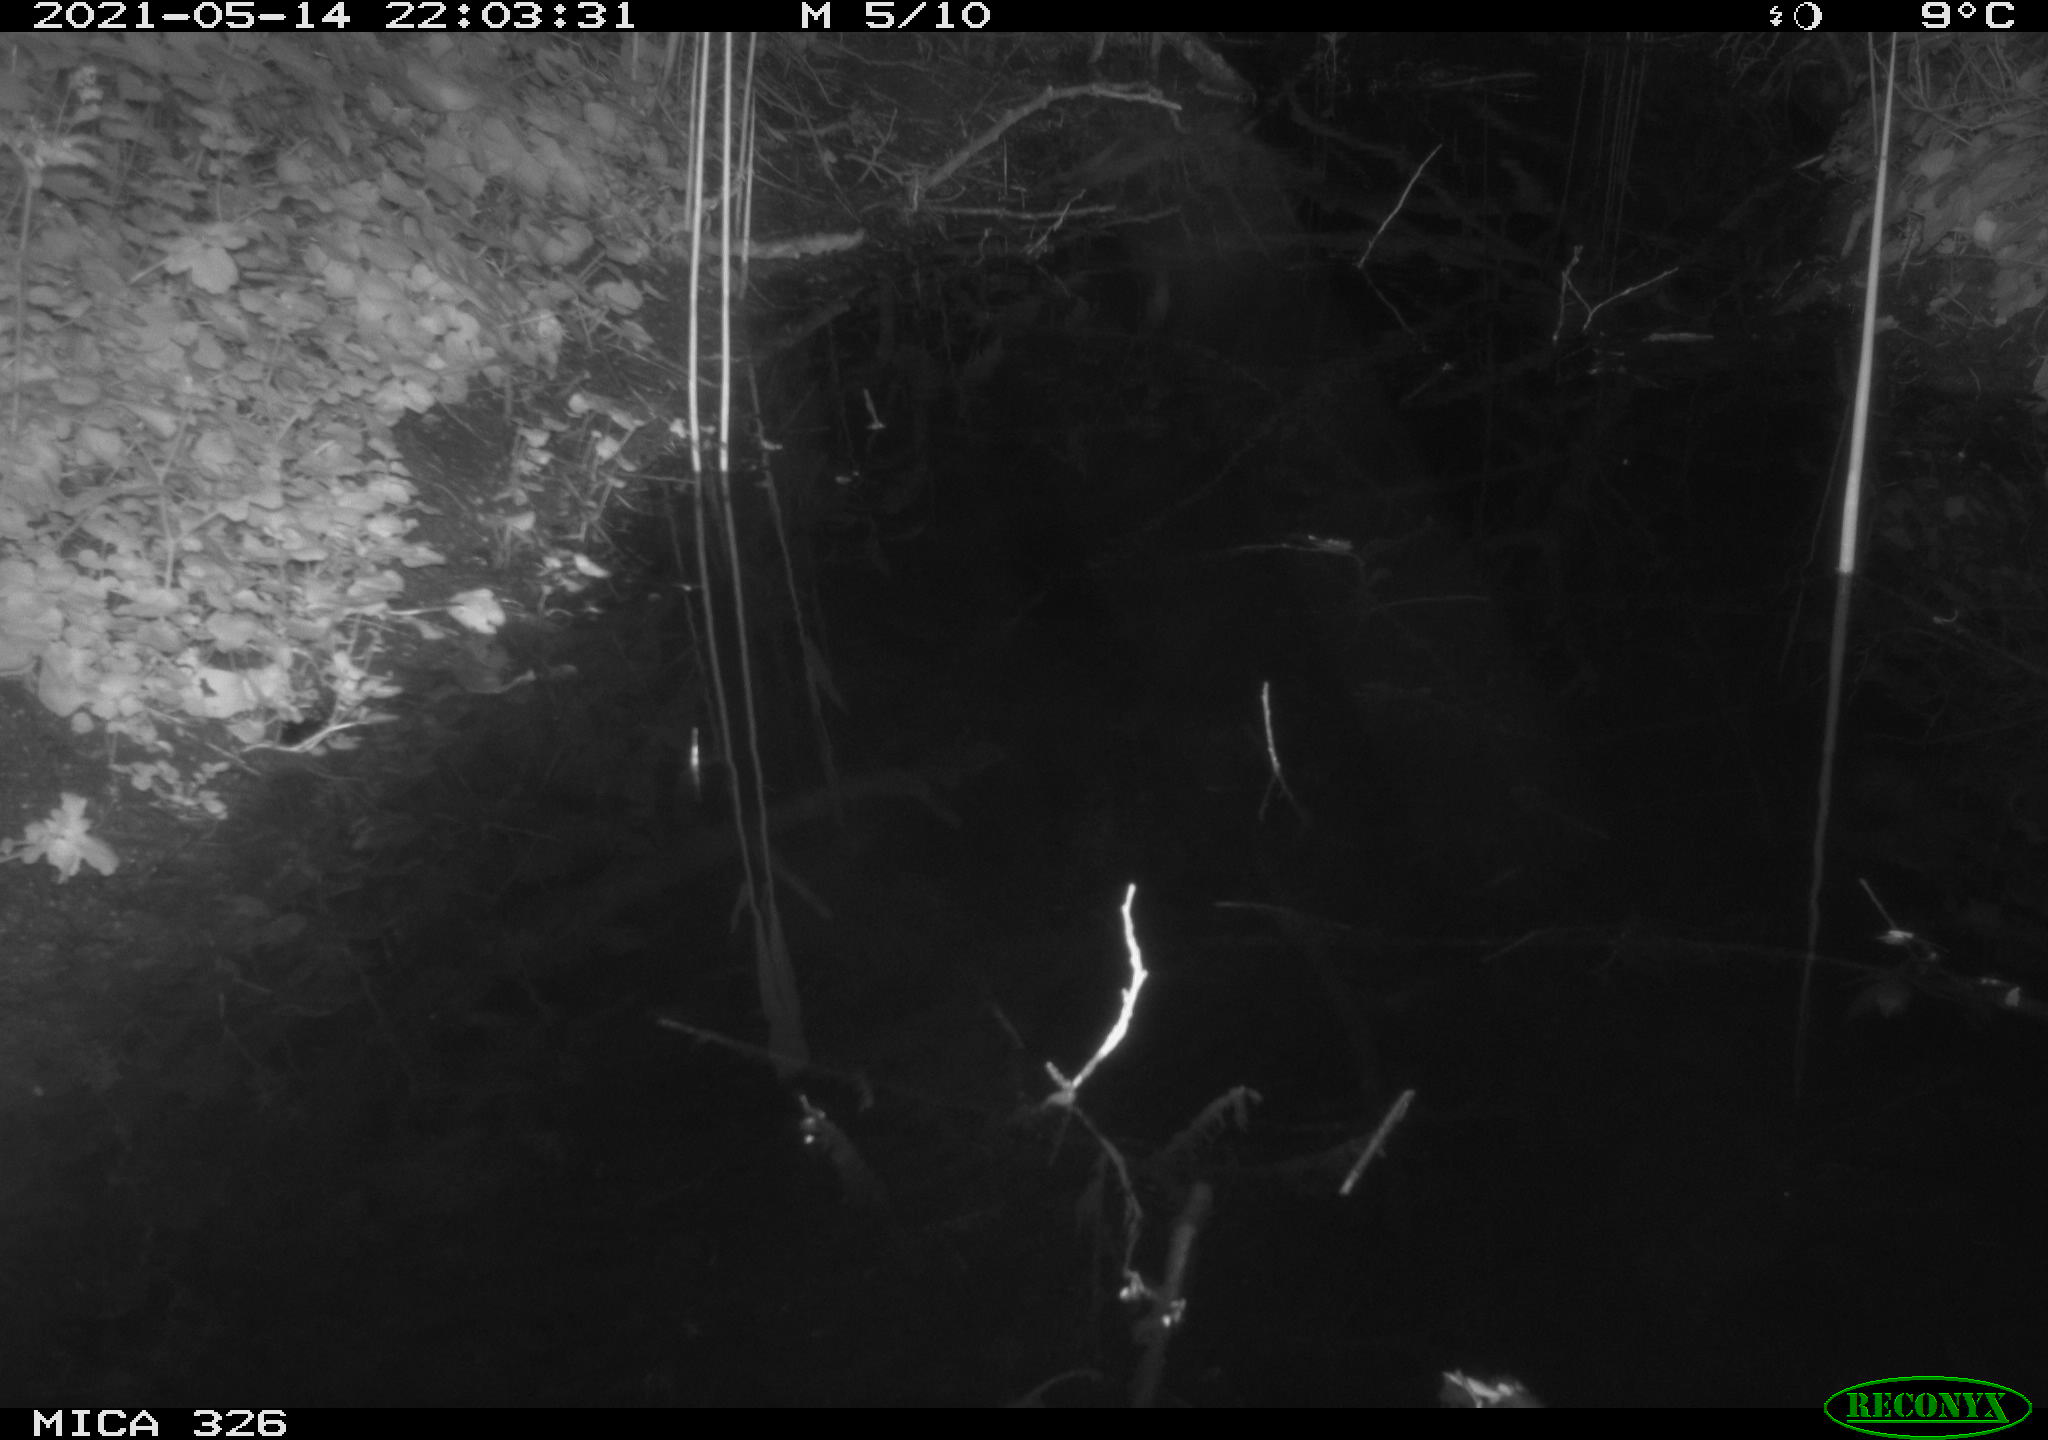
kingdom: Animalia
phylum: Chordata
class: Mammalia
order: Rodentia
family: Muridae
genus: Rattus
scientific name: Rattus norvegicus
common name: Brown rat
